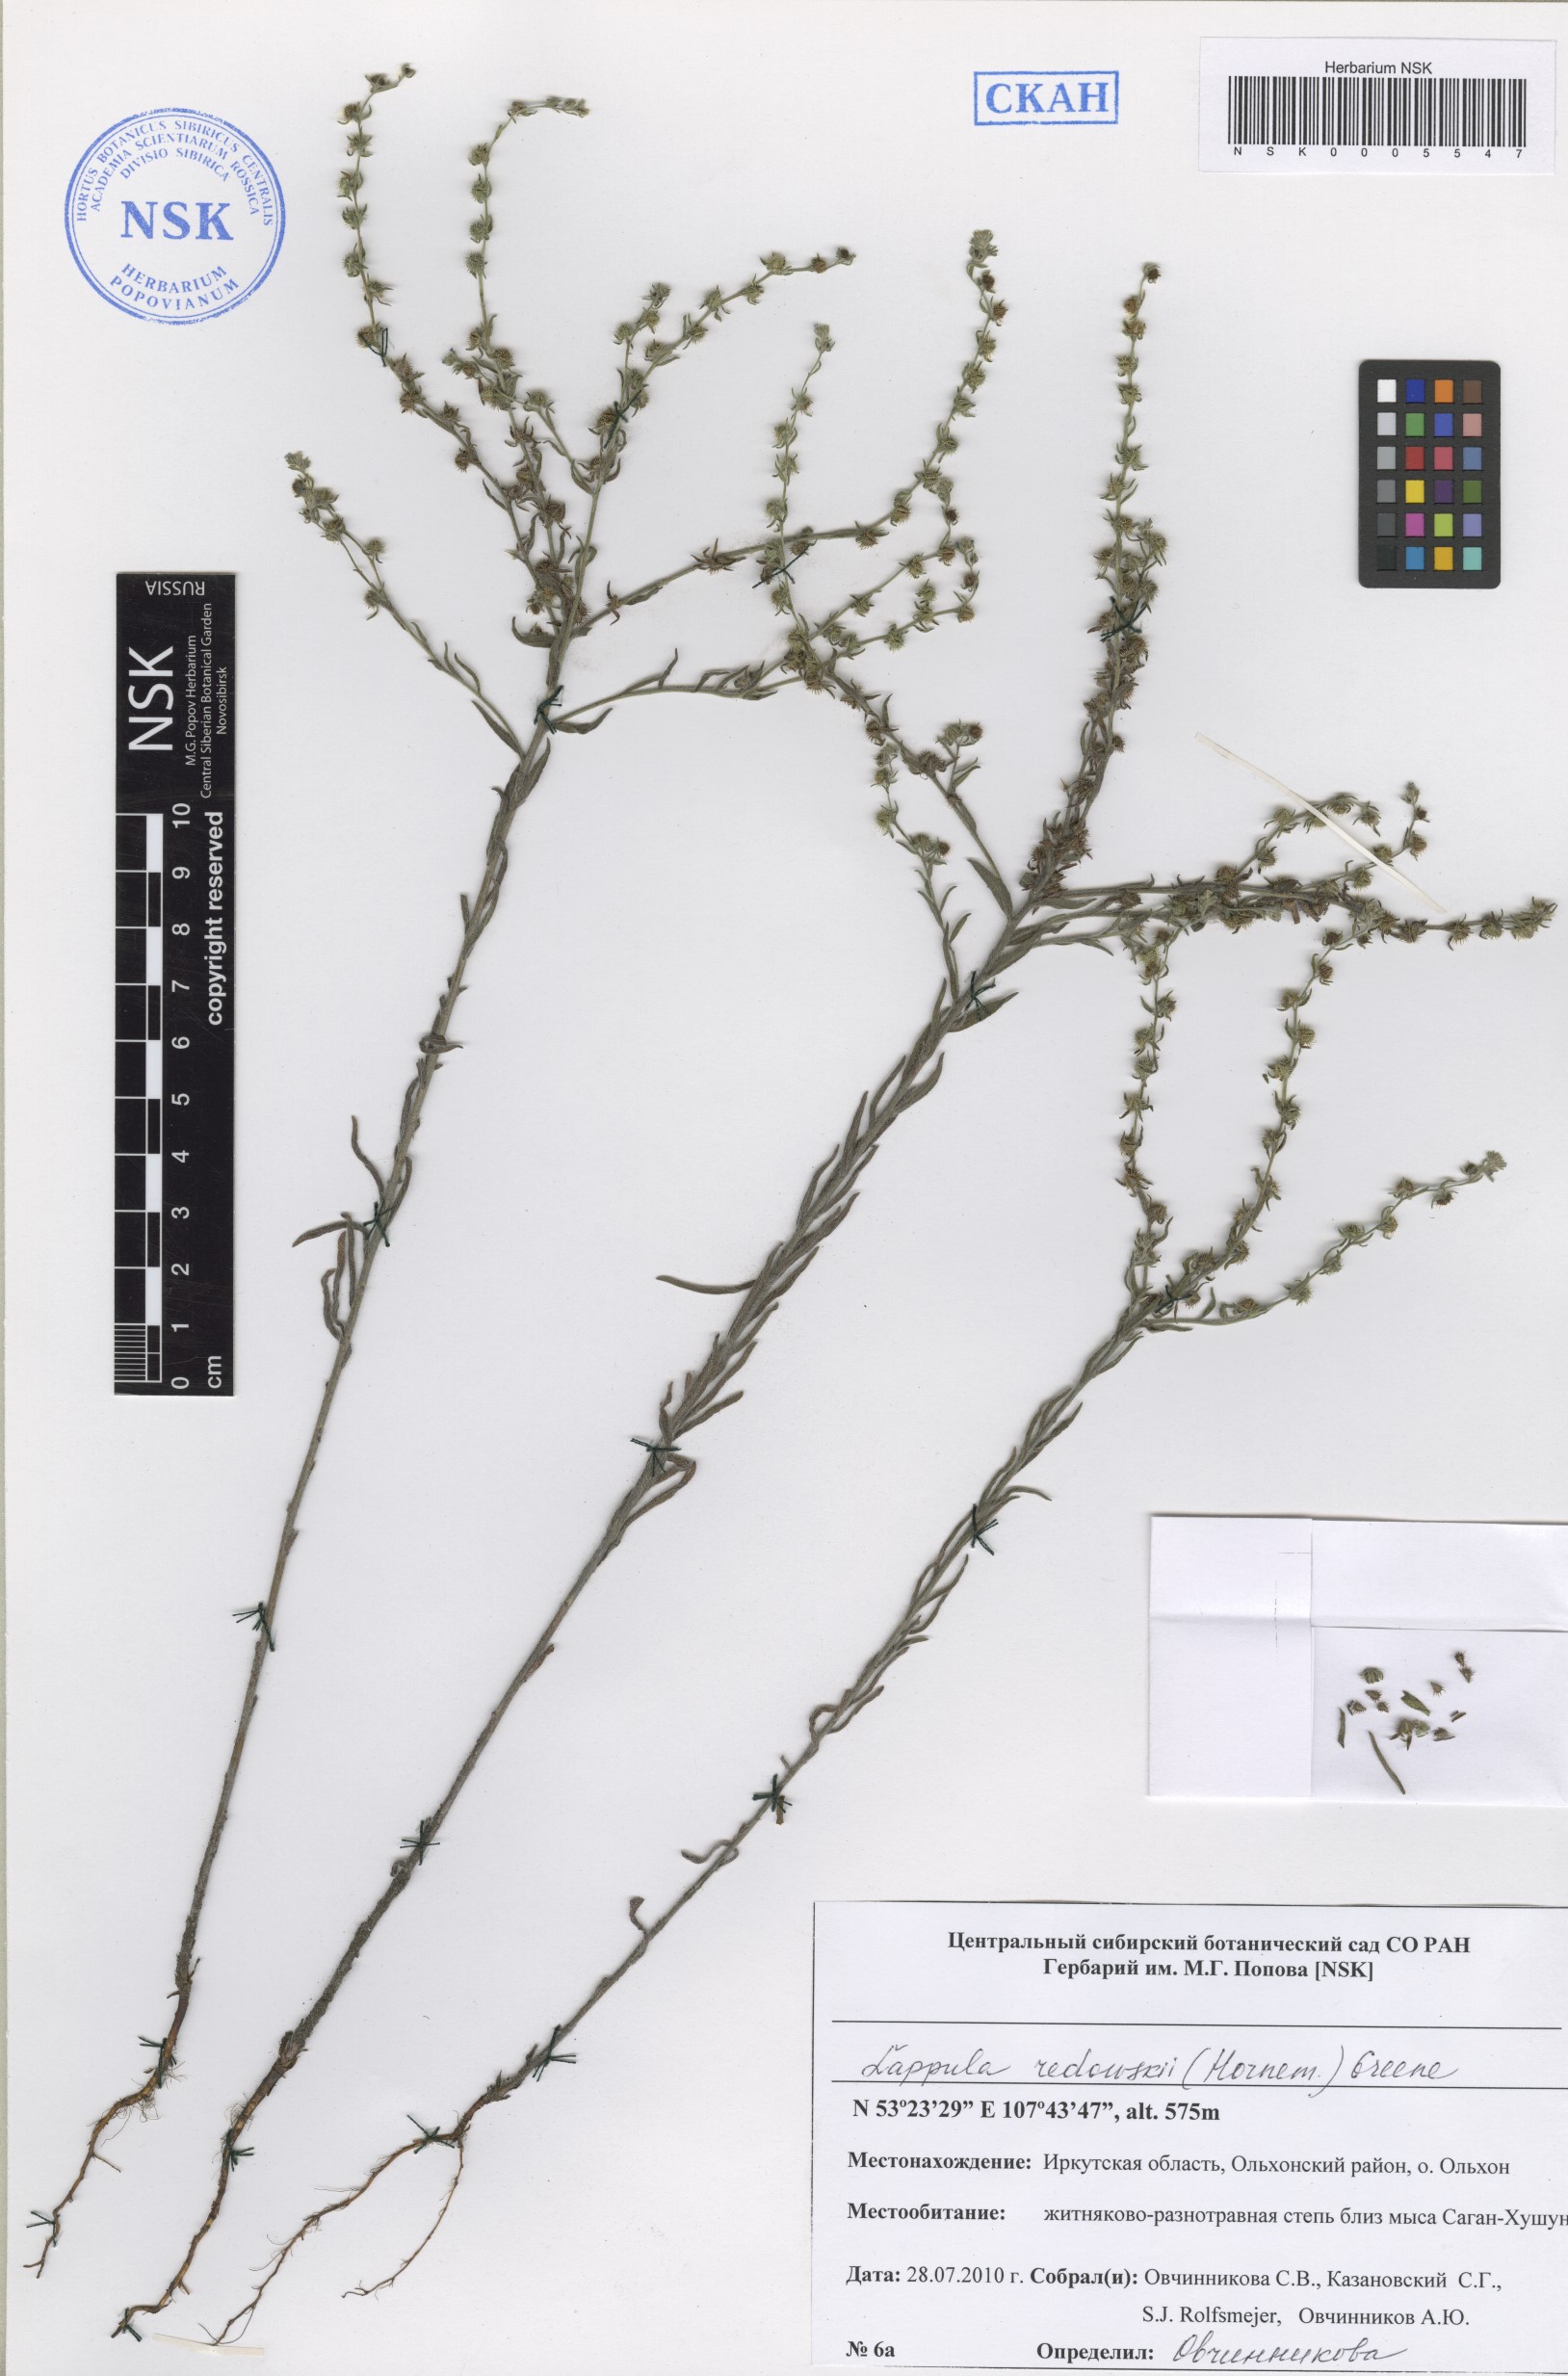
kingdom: Plantae
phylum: Tracheophyta
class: Magnoliopsida
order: Boraginales
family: Boraginaceae
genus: Lappula
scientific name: Lappula redowskii
